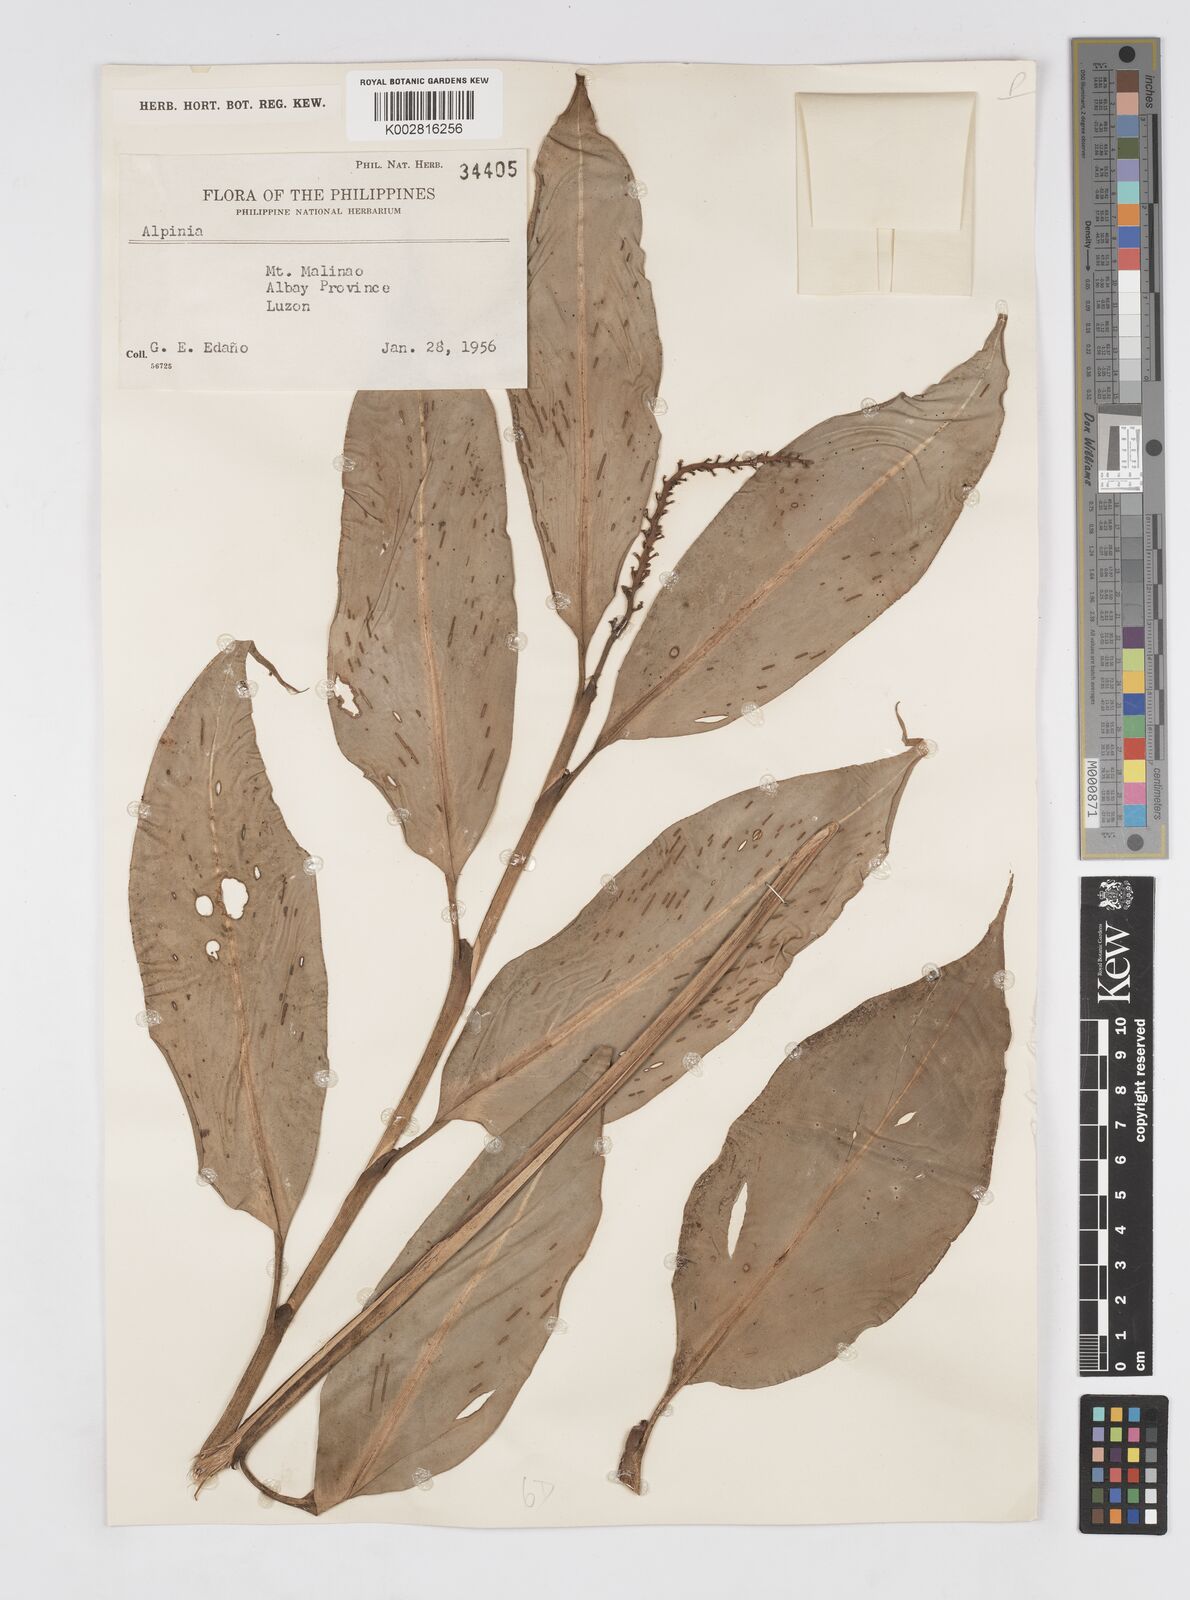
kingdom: Plantae
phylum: Tracheophyta
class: Liliopsida
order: Zingiberales
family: Zingiberaceae
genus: Alpinia
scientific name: Alpinia
